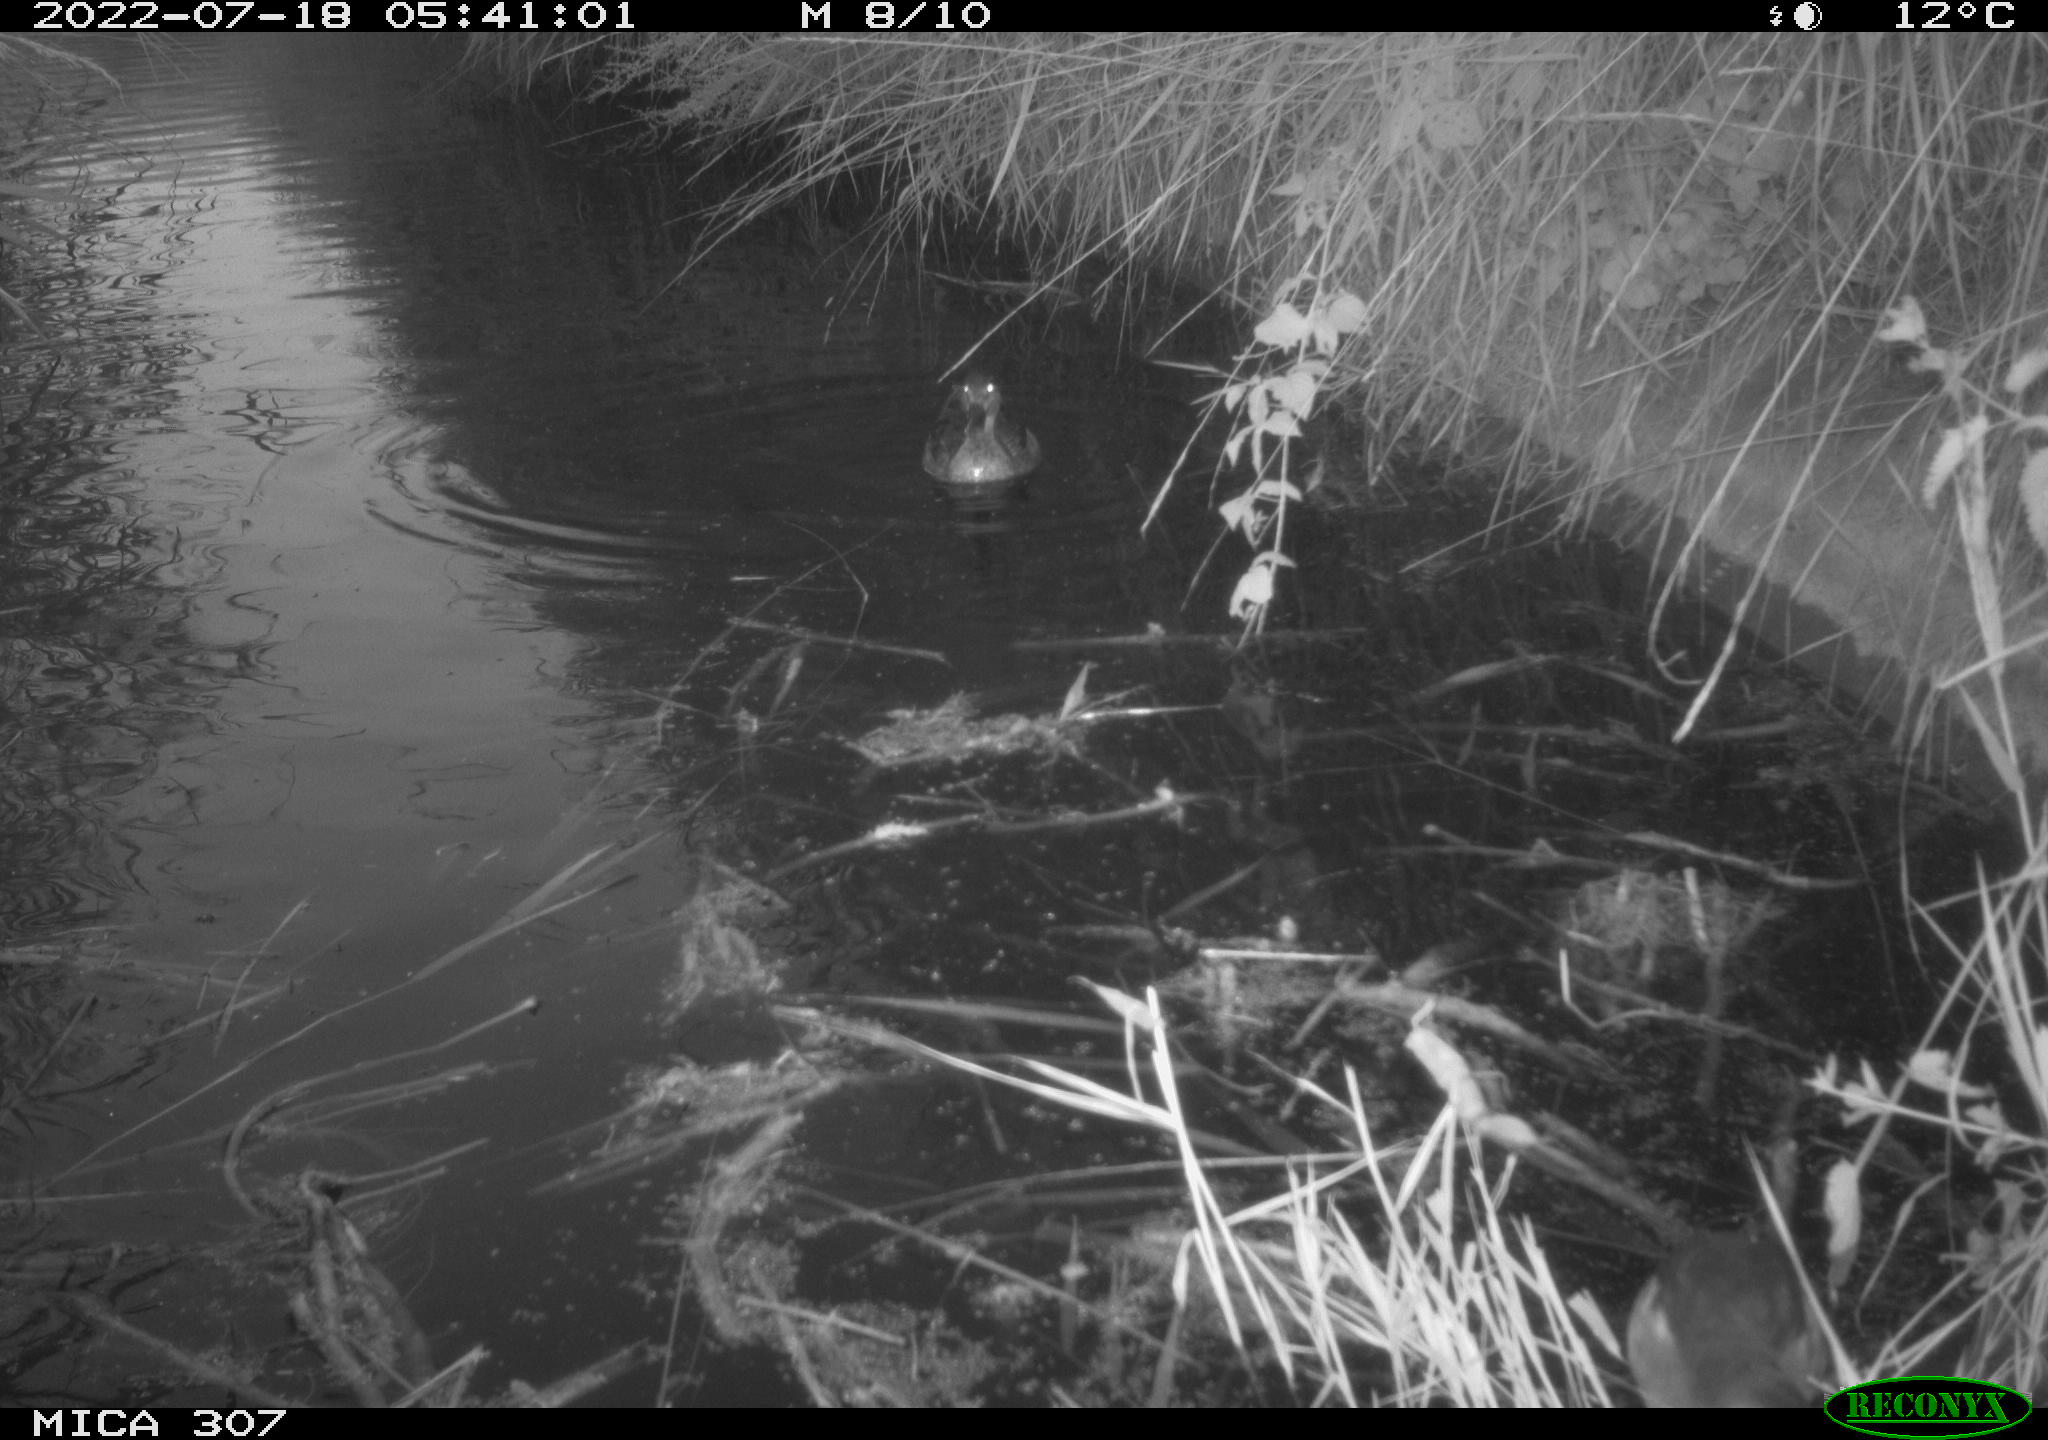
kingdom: Animalia
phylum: Chordata
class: Aves
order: Anseriformes
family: Anatidae
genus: Anas
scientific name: Anas platyrhynchos
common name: Mallard
